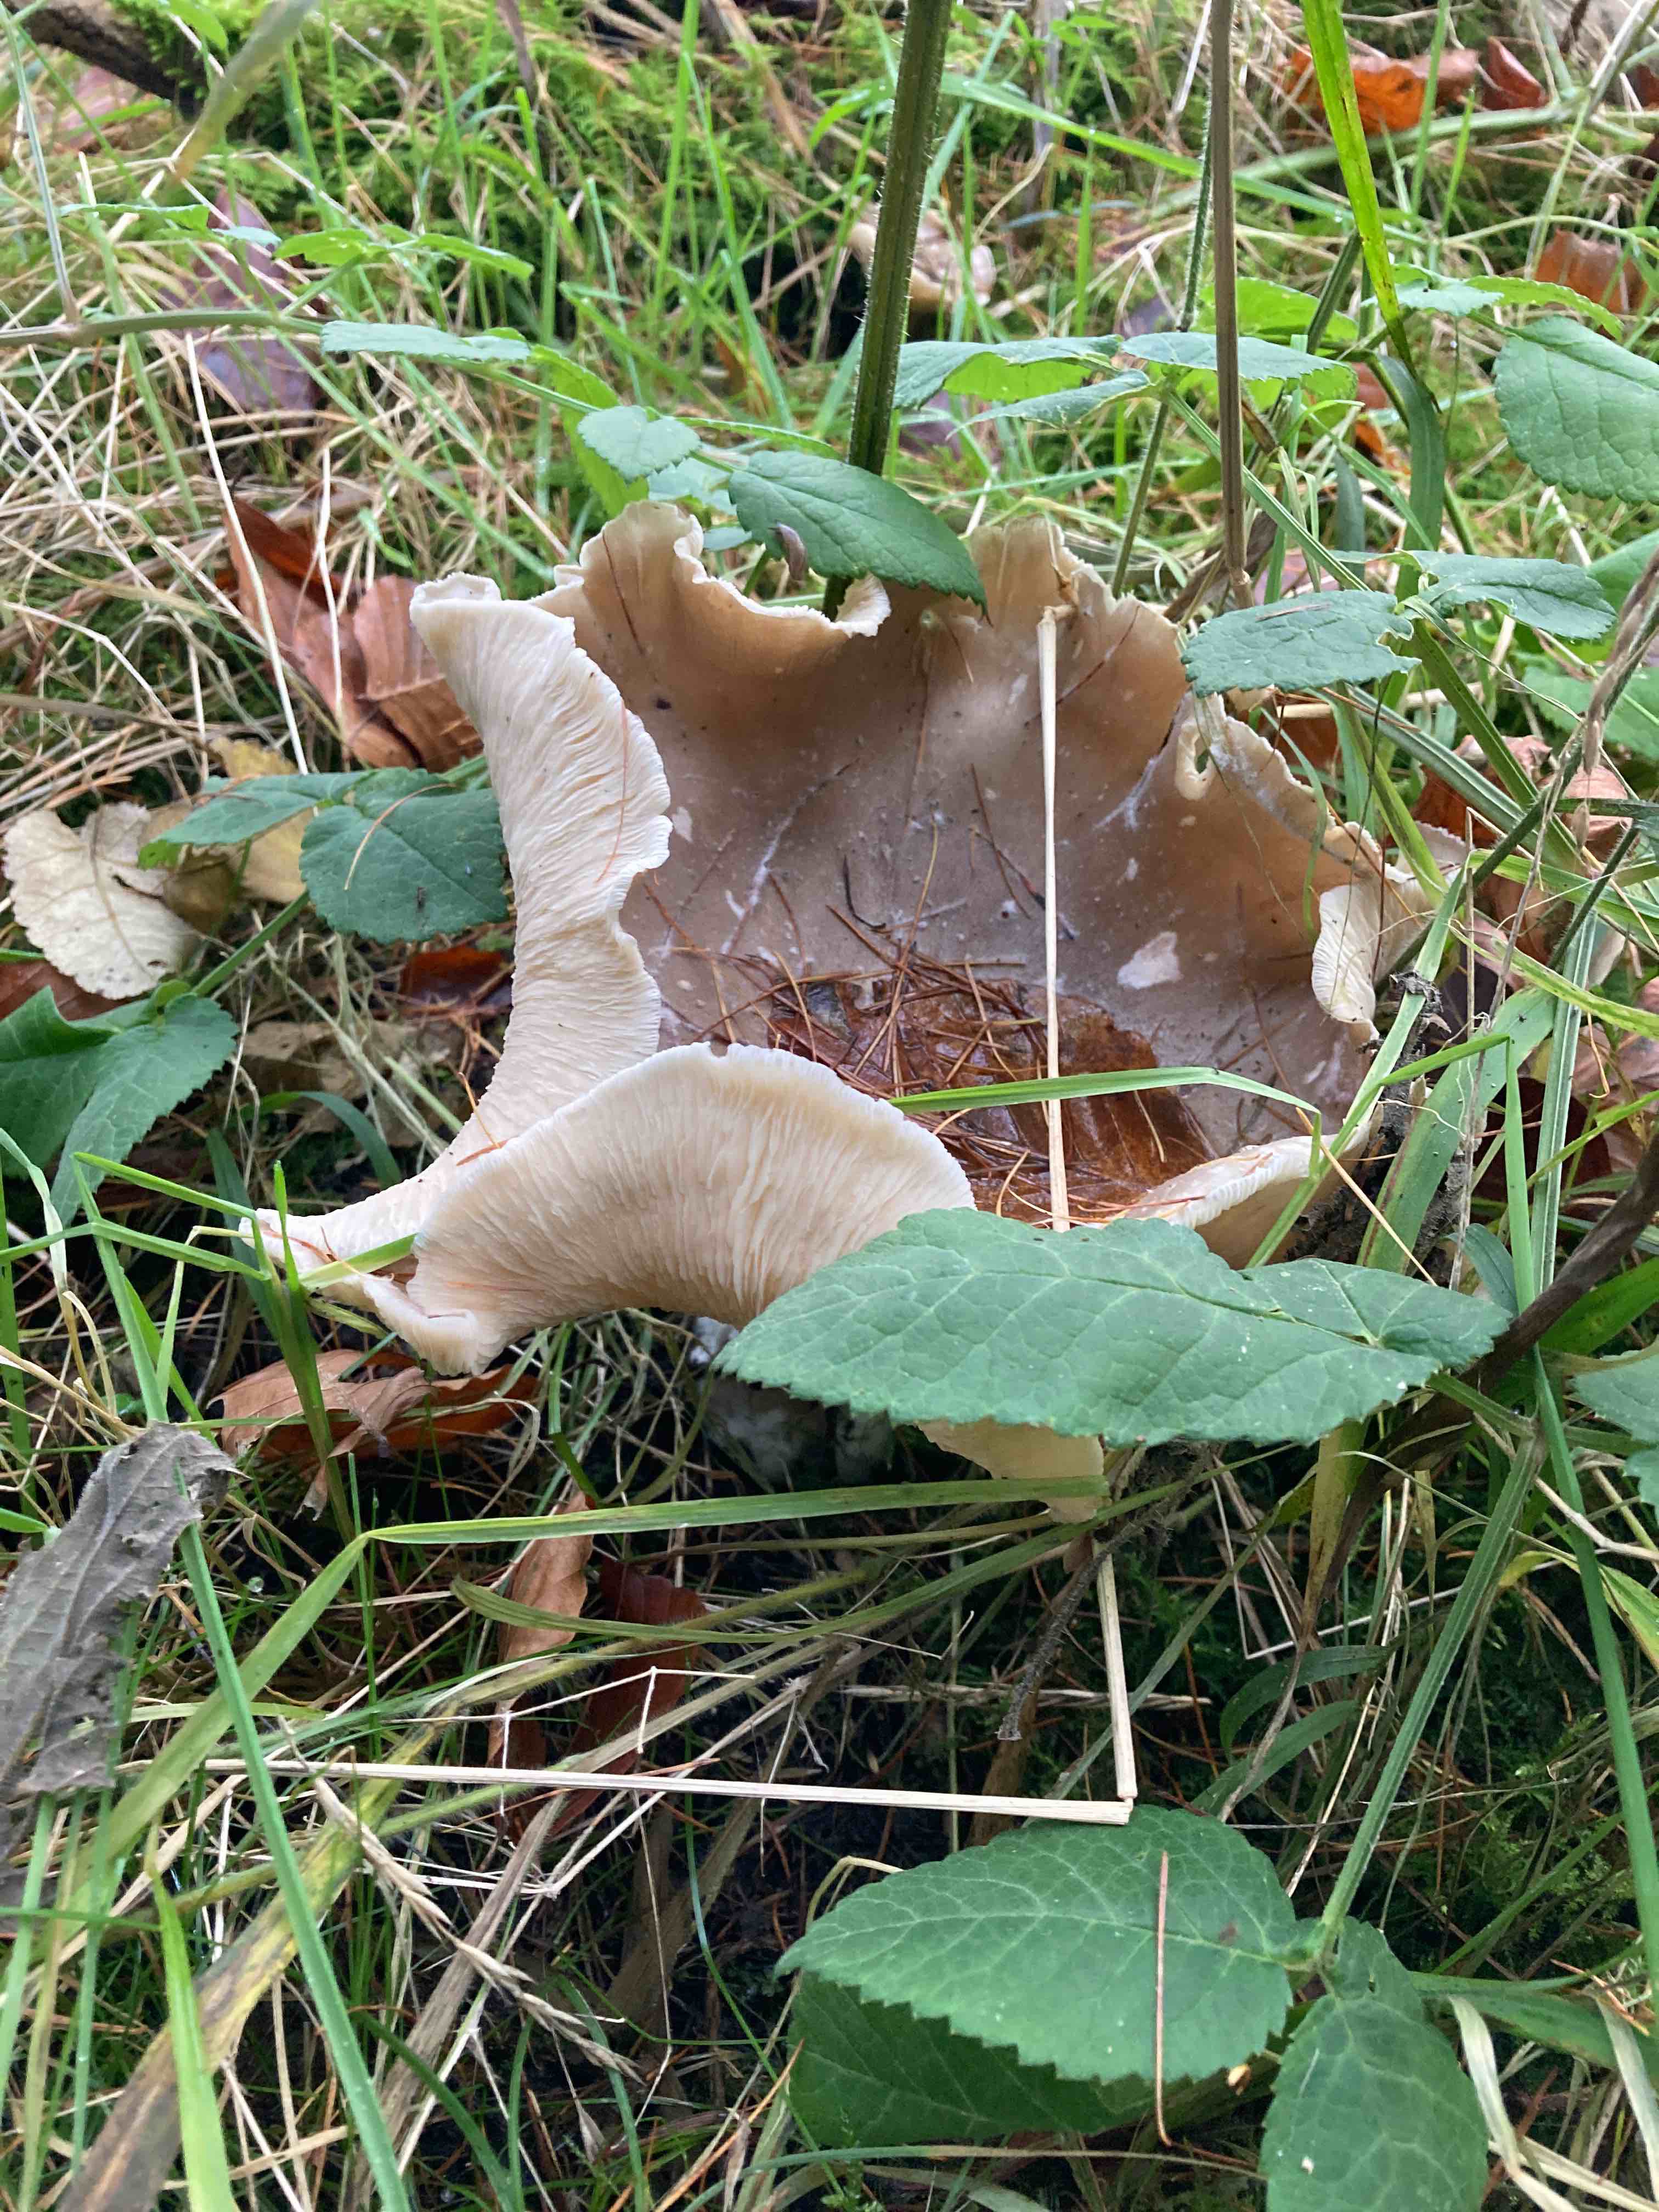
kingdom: Fungi
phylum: Basidiomycota
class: Agaricomycetes
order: Agaricales
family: Tricholomataceae
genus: Melanoleuca
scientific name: Melanoleuca grammopodia
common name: stribestokket munkehat
